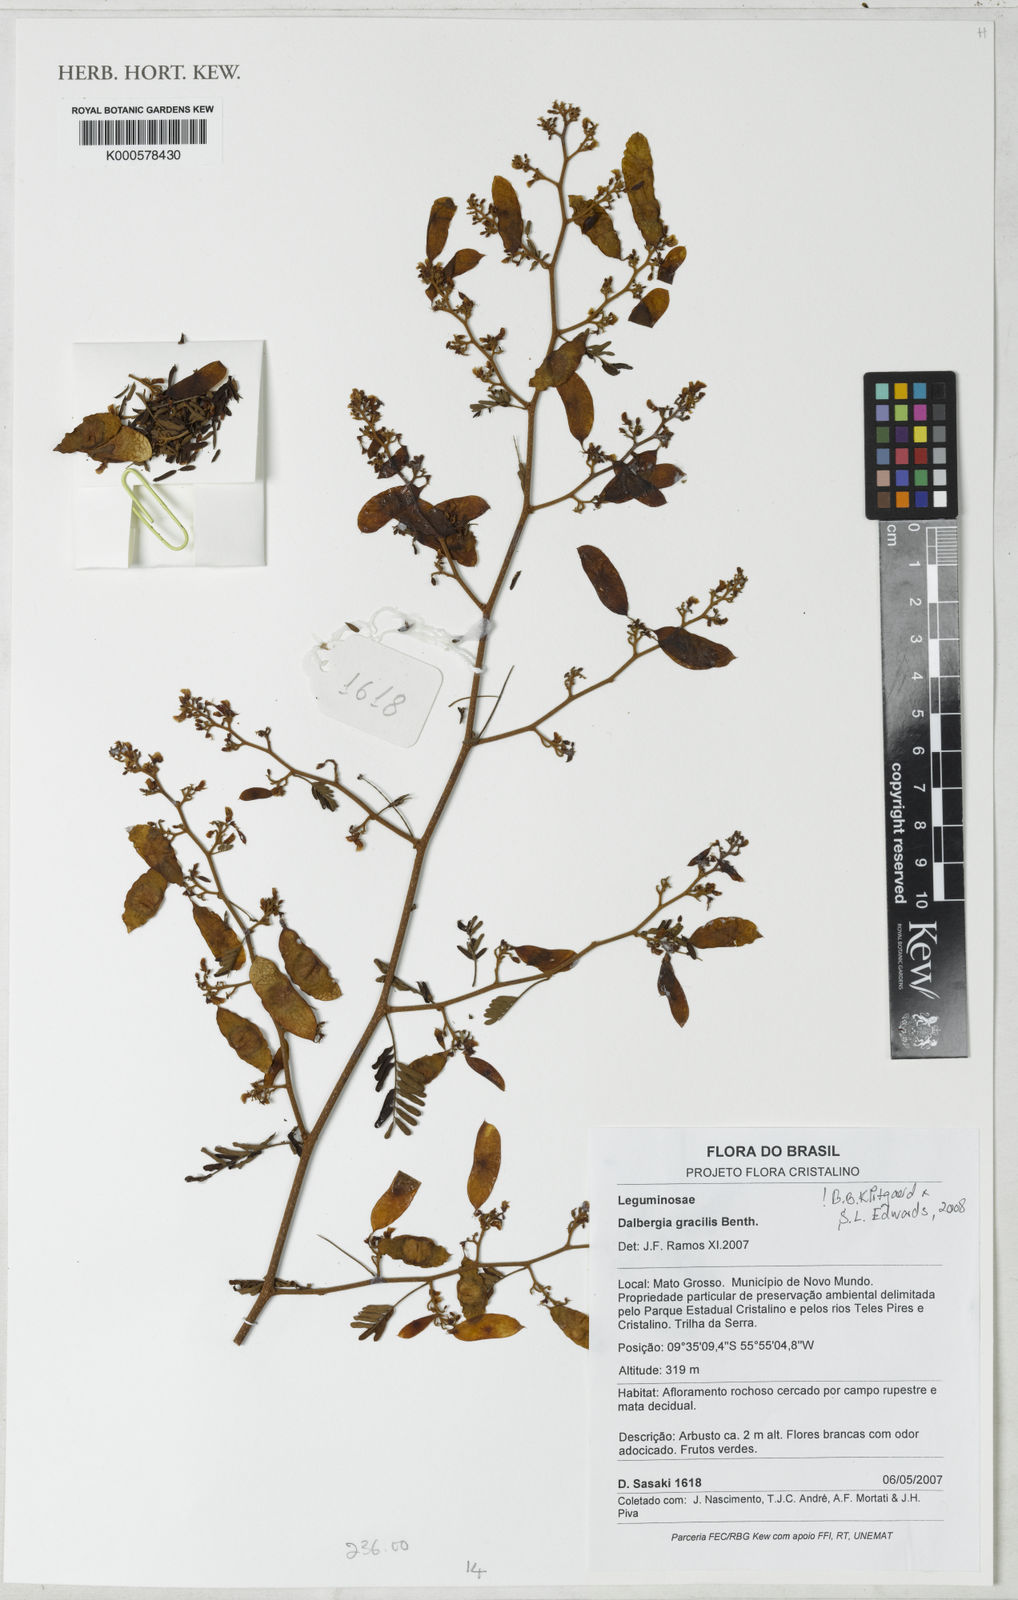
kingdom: Plantae
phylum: Tracheophyta
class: Magnoliopsida
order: Fabales
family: Fabaceae
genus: Dalbergia
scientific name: Dalbergia gracilis
